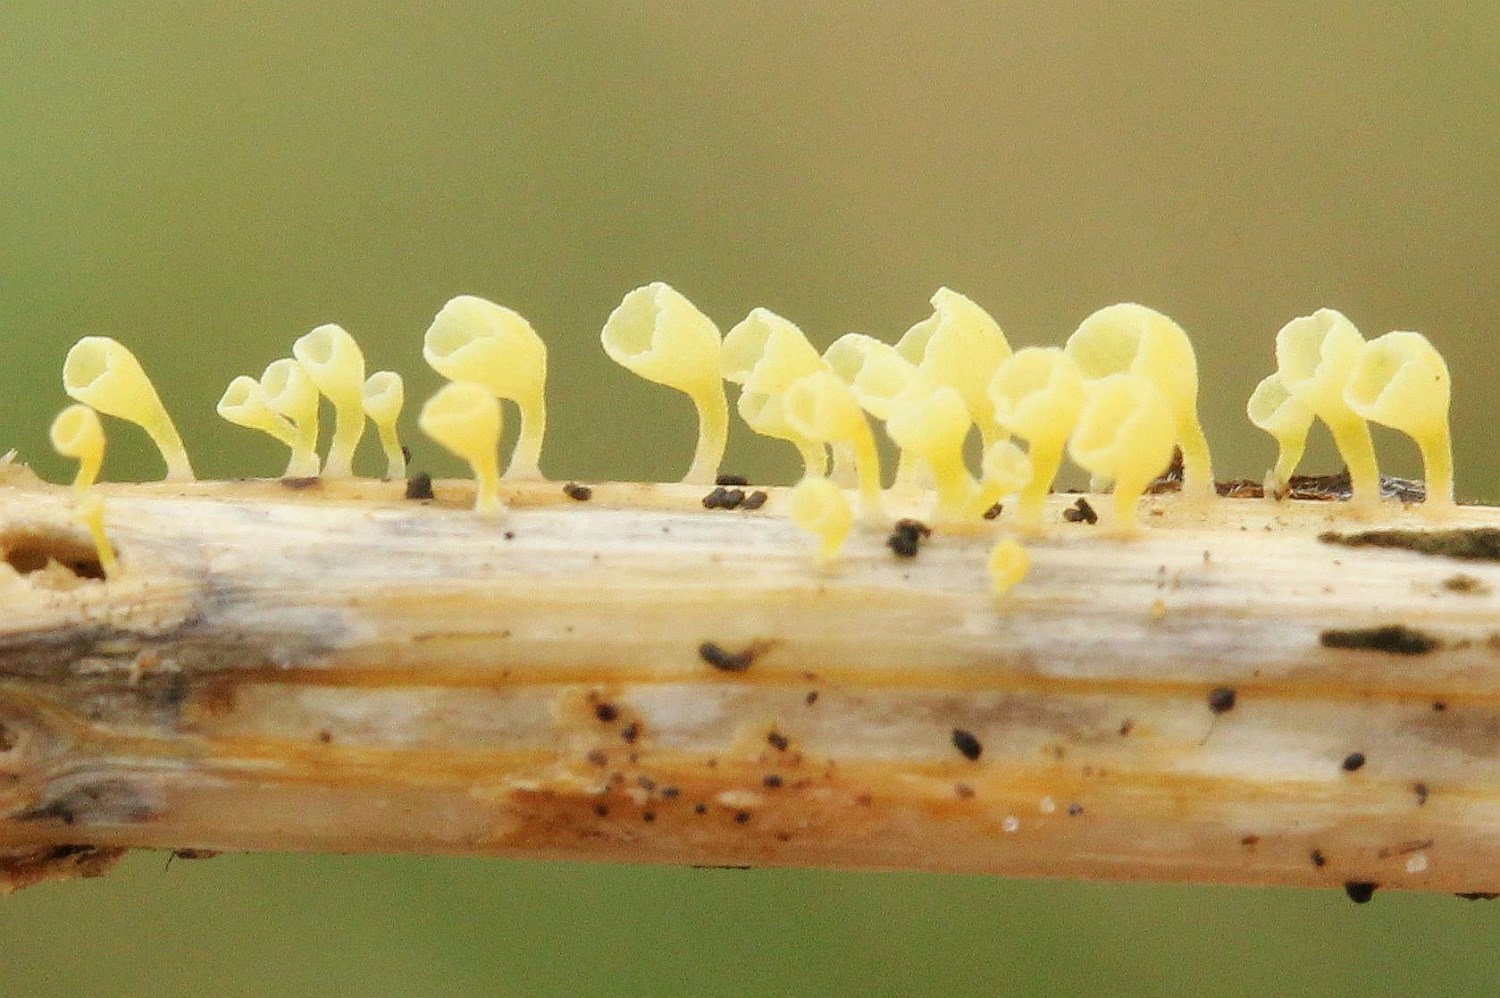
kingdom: Fungi
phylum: Basidiomycota
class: Agaricomycetes
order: Agaricales
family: Marasmiaceae
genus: Calyptella
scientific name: Calyptella campanula
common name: gul nældehue
